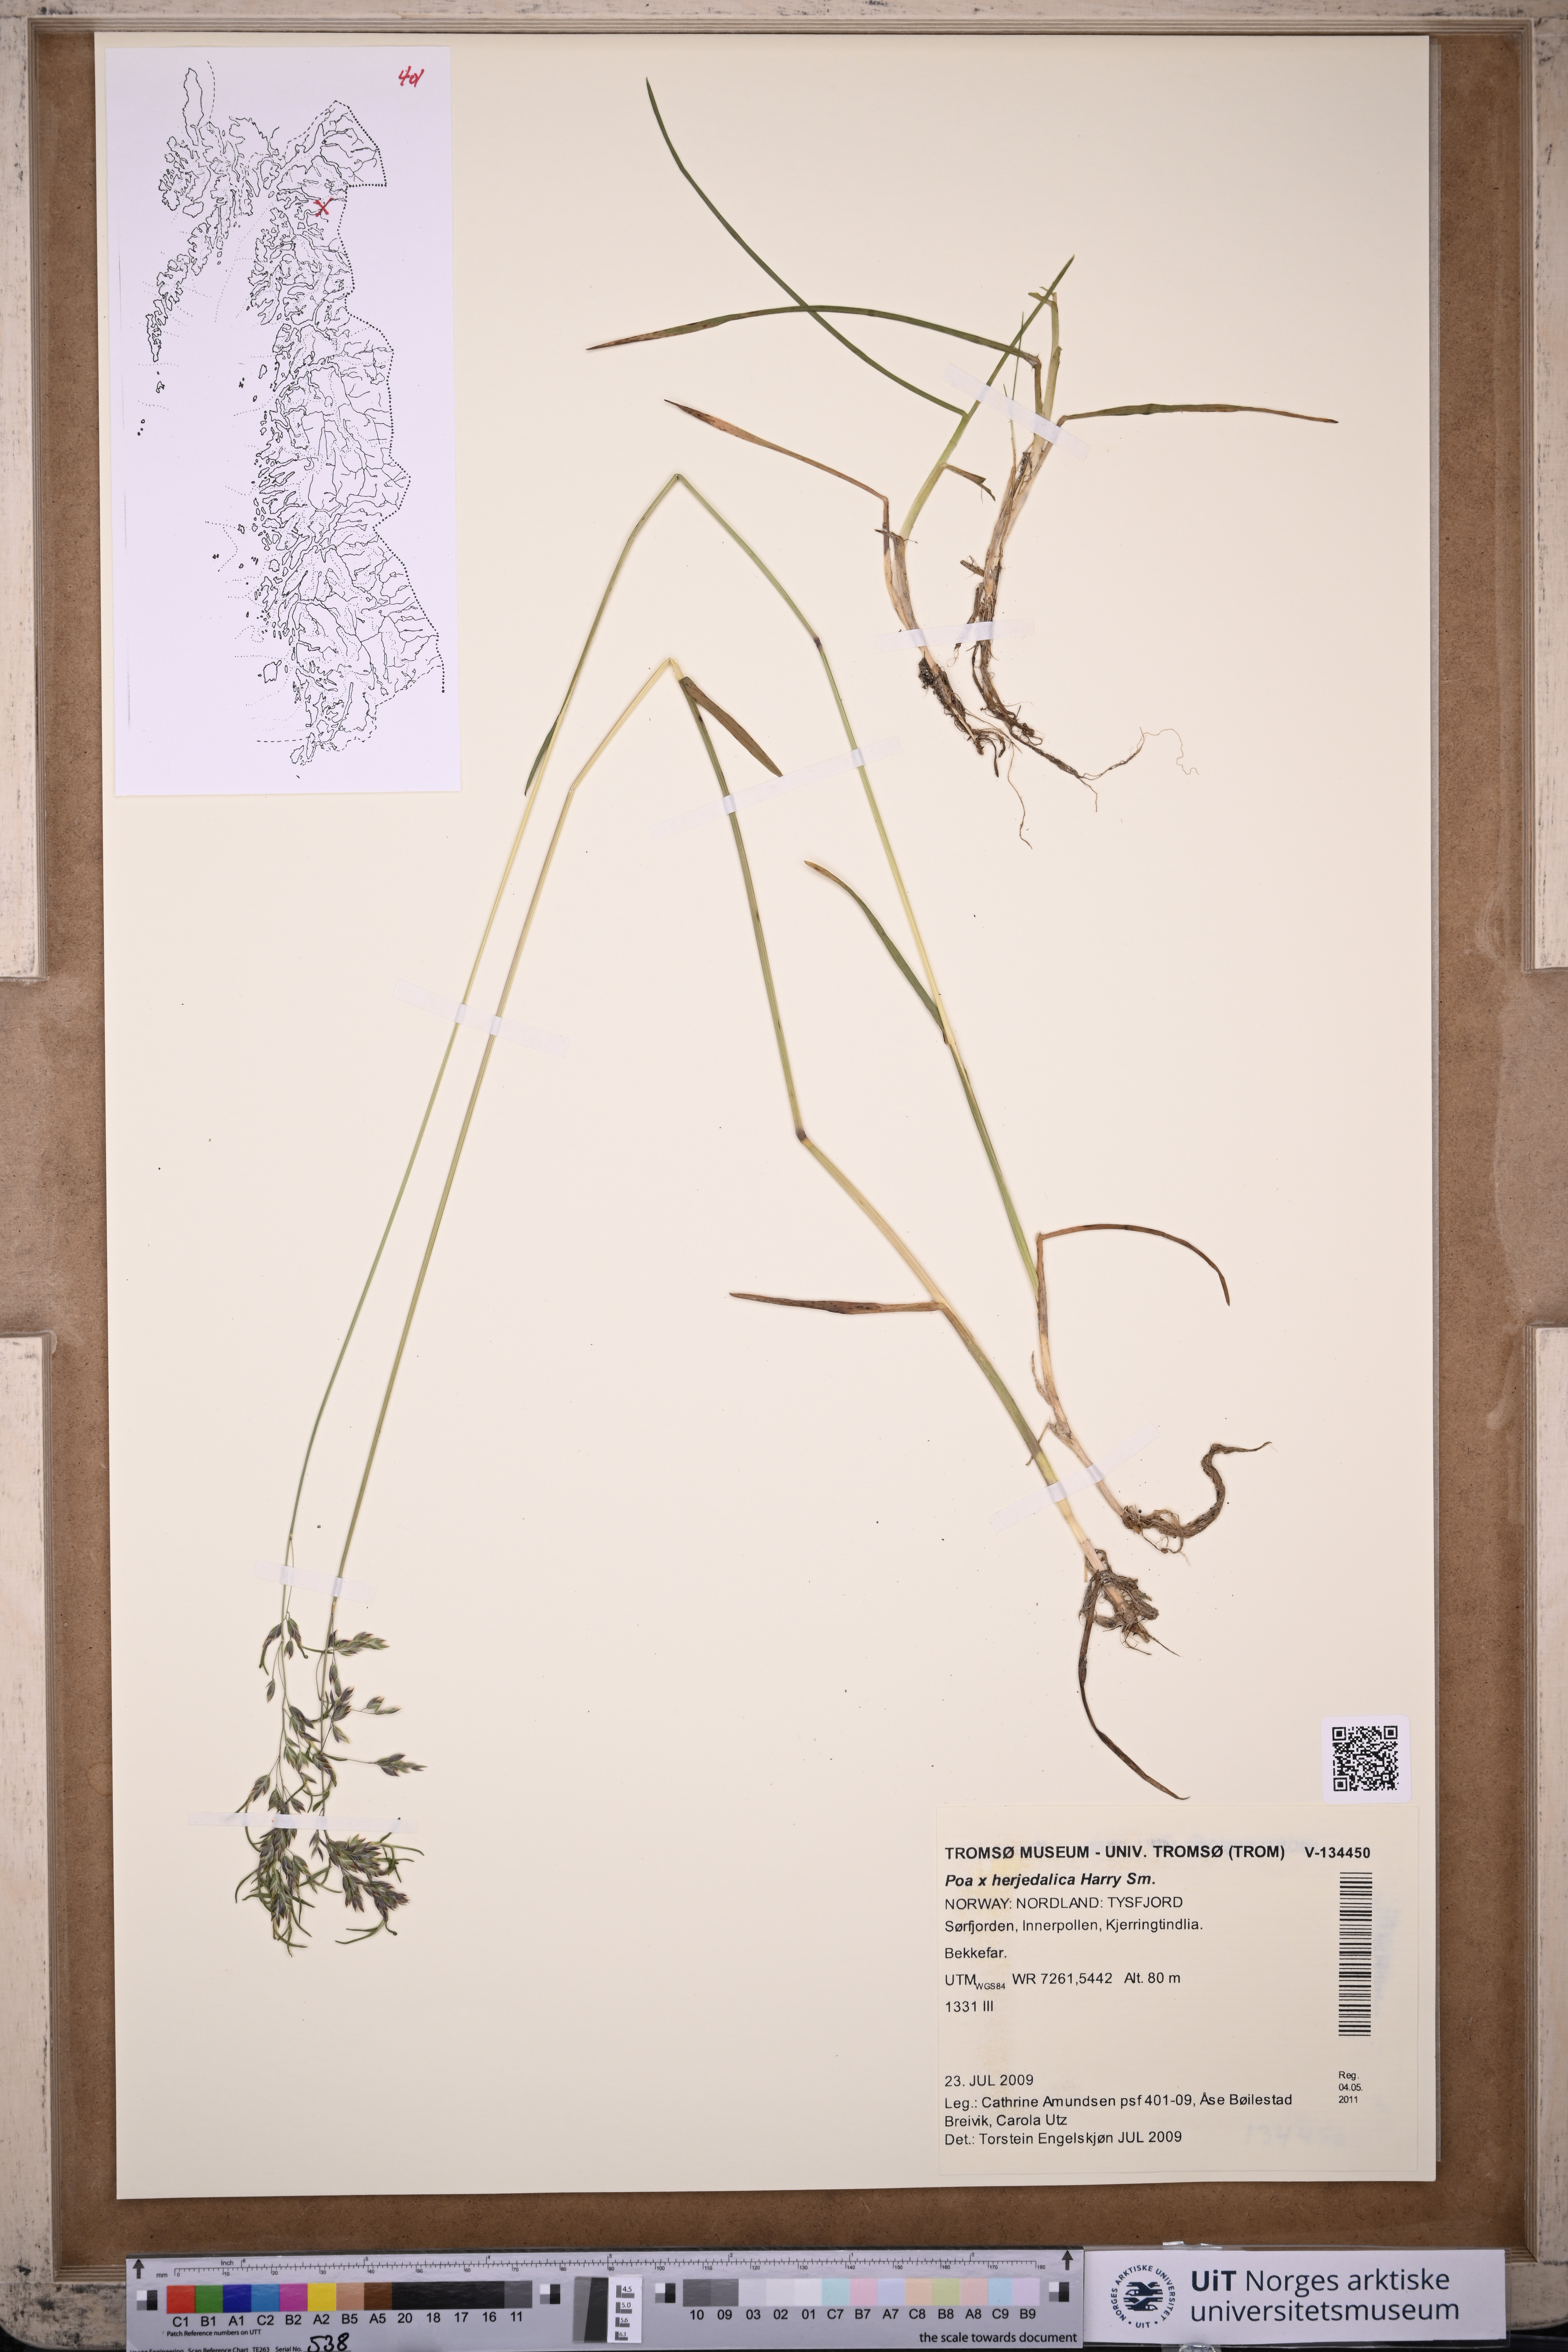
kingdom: Plantae
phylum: Tracheophyta
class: Liliopsida
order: Poales
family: Poaceae
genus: Poa
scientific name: Poa herjedalica
